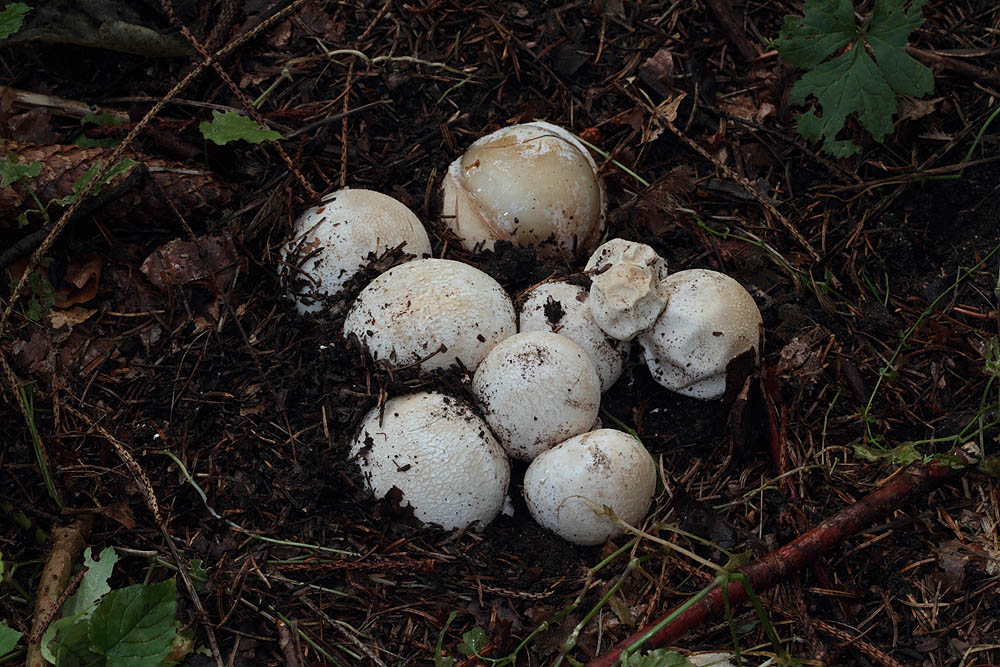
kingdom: Fungi
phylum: Basidiomycota
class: Agaricomycetes
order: Phallales
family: Phallaceae
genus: Phallus
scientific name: Phallus impudicus
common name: almindelig stinksvamp
